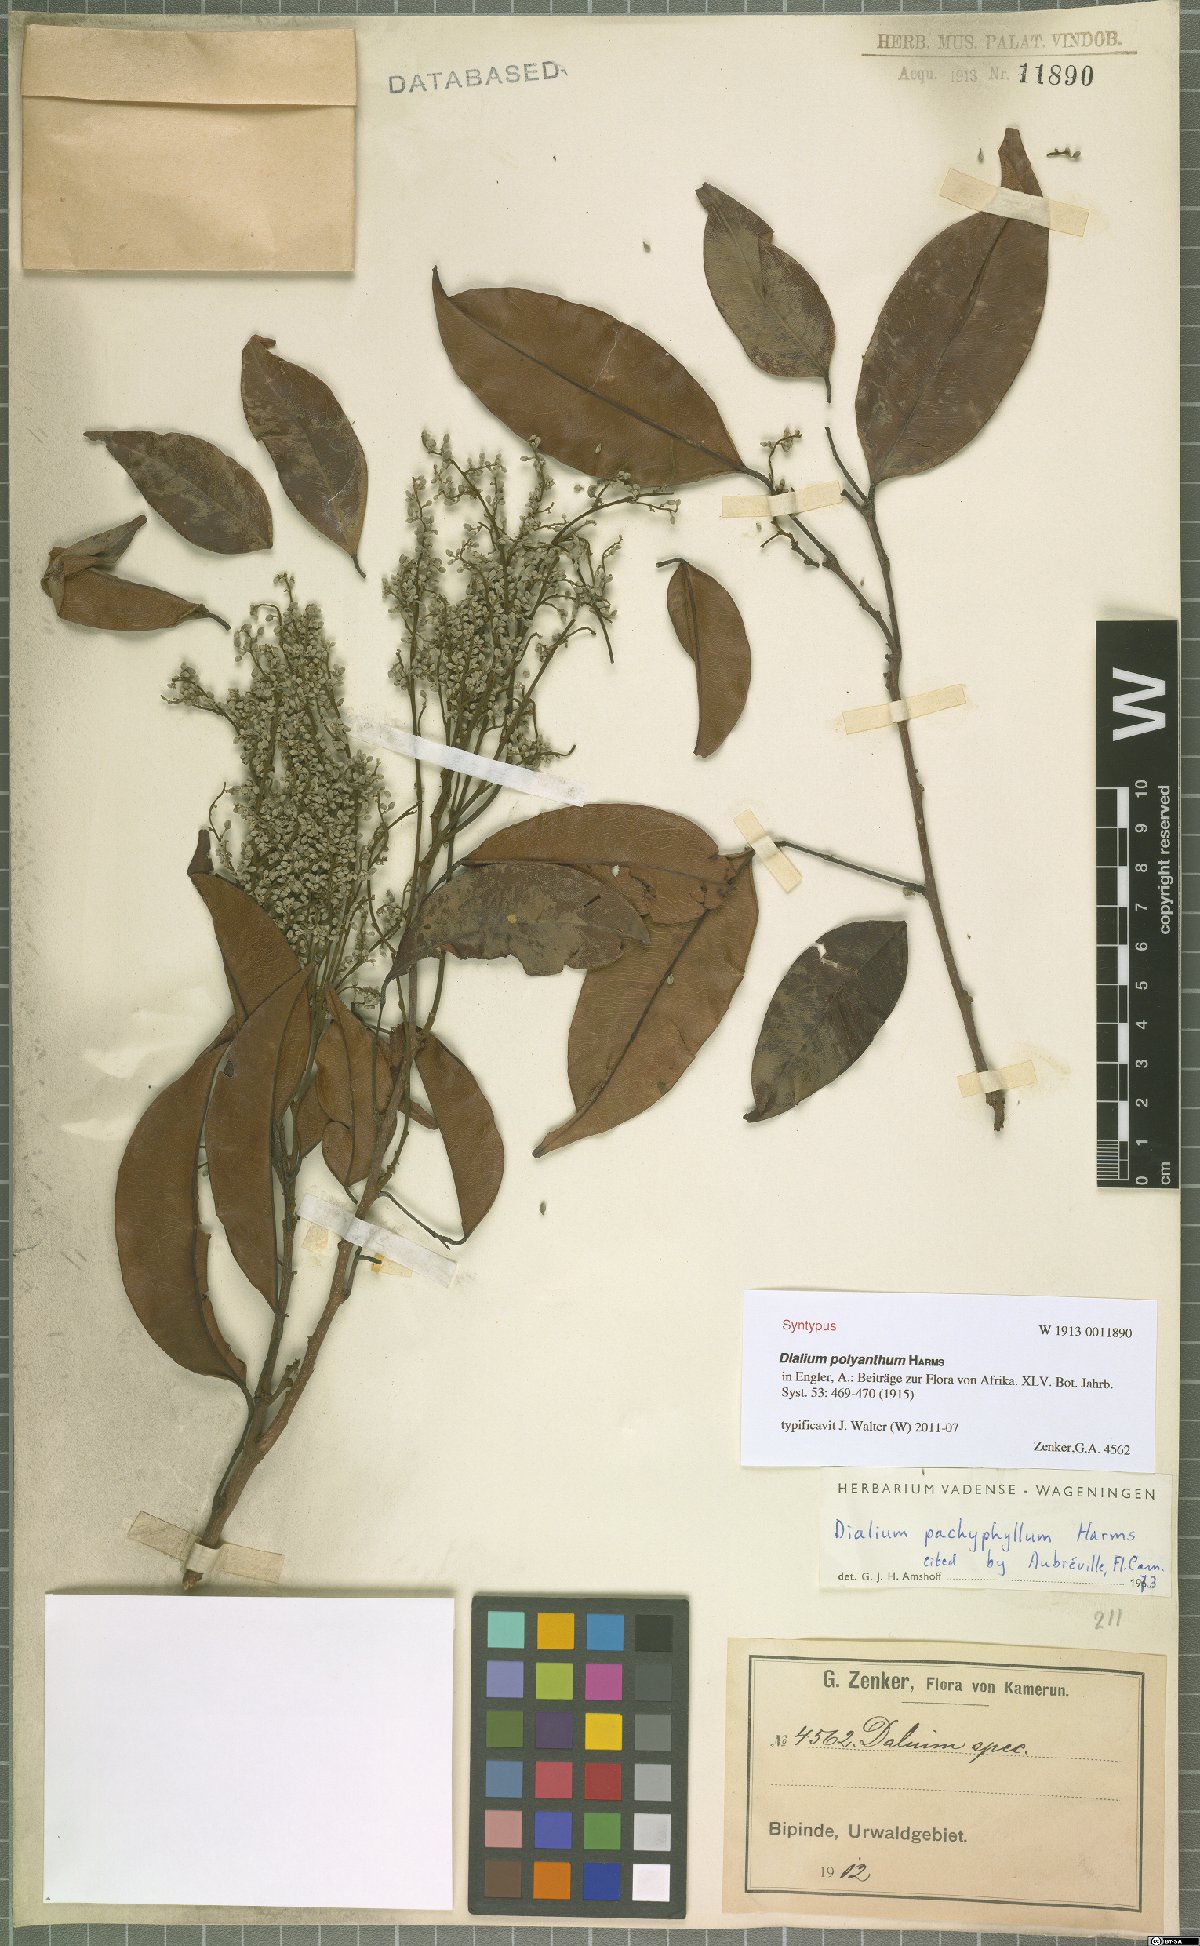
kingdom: Plantae
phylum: Tracheophyta
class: Magnoliopsida
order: Fabales
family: Fabaceae
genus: Dialium
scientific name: Dialium polyanthum
